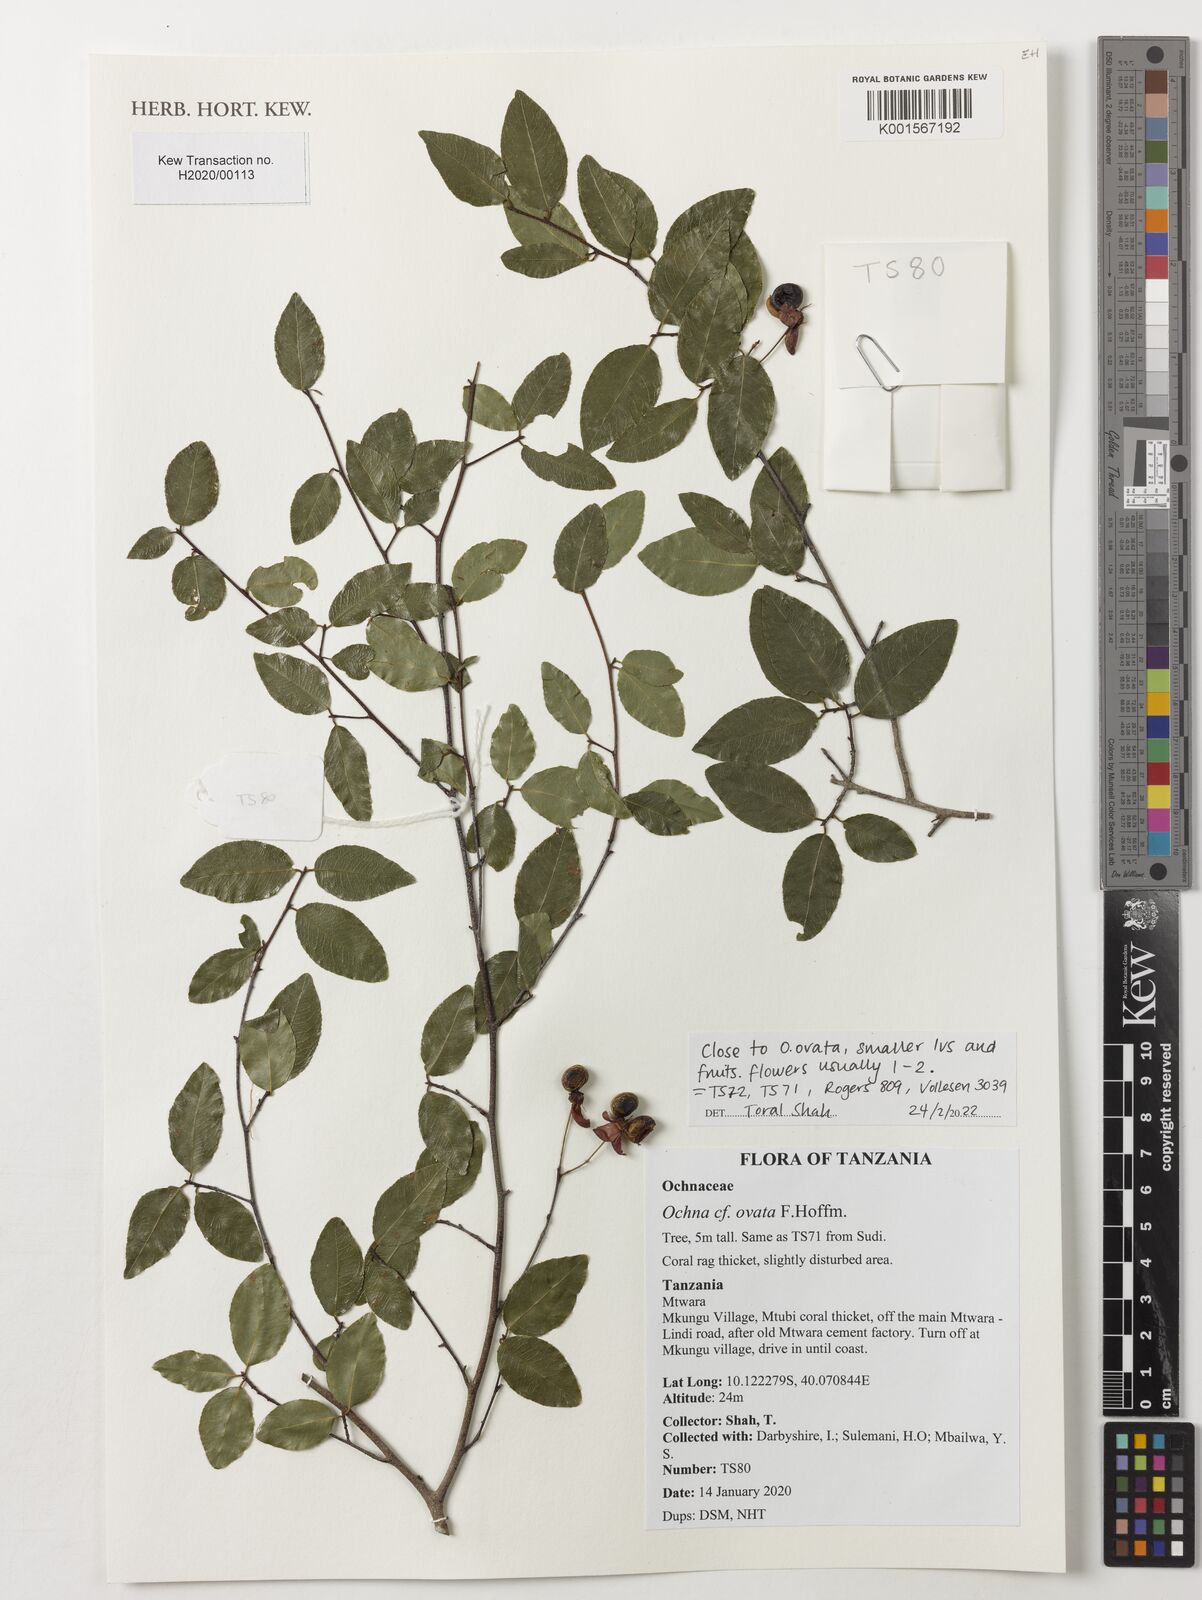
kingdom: Plantae
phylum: Tracheophyta
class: Magnoliopsida
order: Malpighiales
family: Ochnaceae
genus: Ochna
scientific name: Ochna ovata
